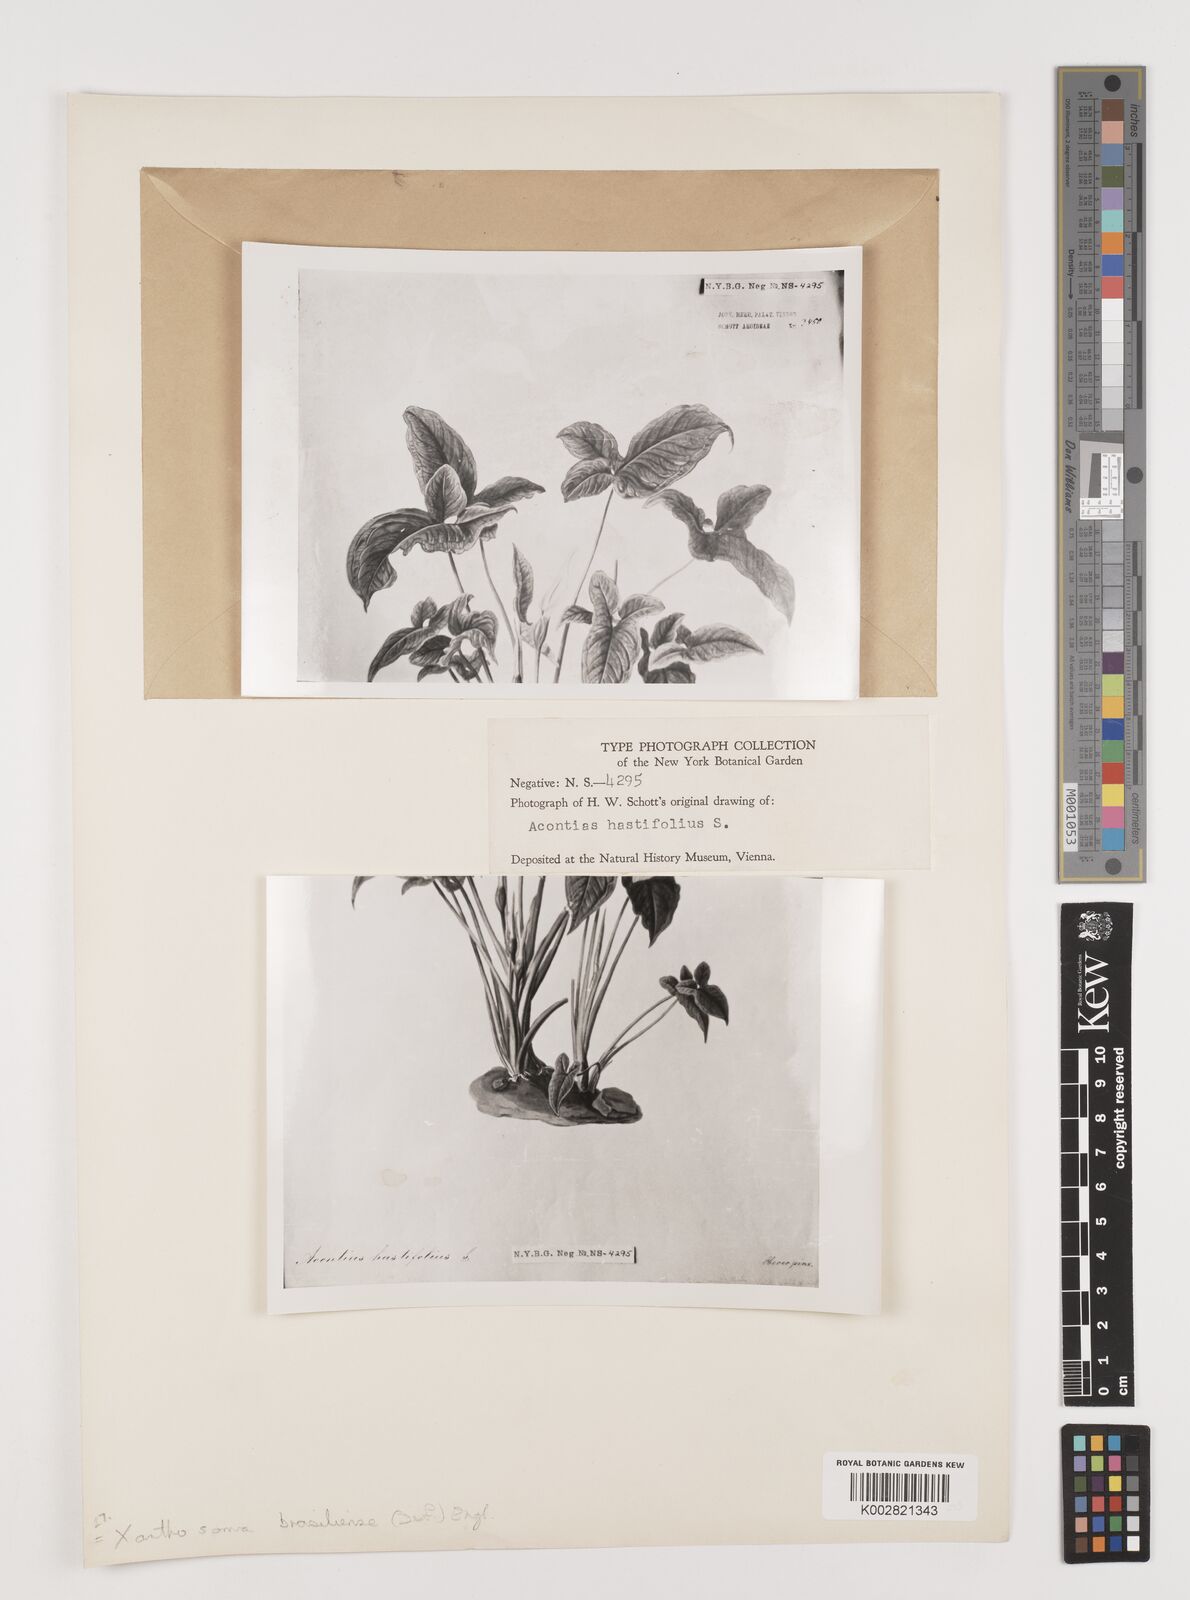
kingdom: Plantae
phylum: Tracheophyta
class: Liliopsida
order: Alismatales
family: Araceae
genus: Xanthosoma
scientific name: Xanthosoma brasiliense
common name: Tahitian-spinach
